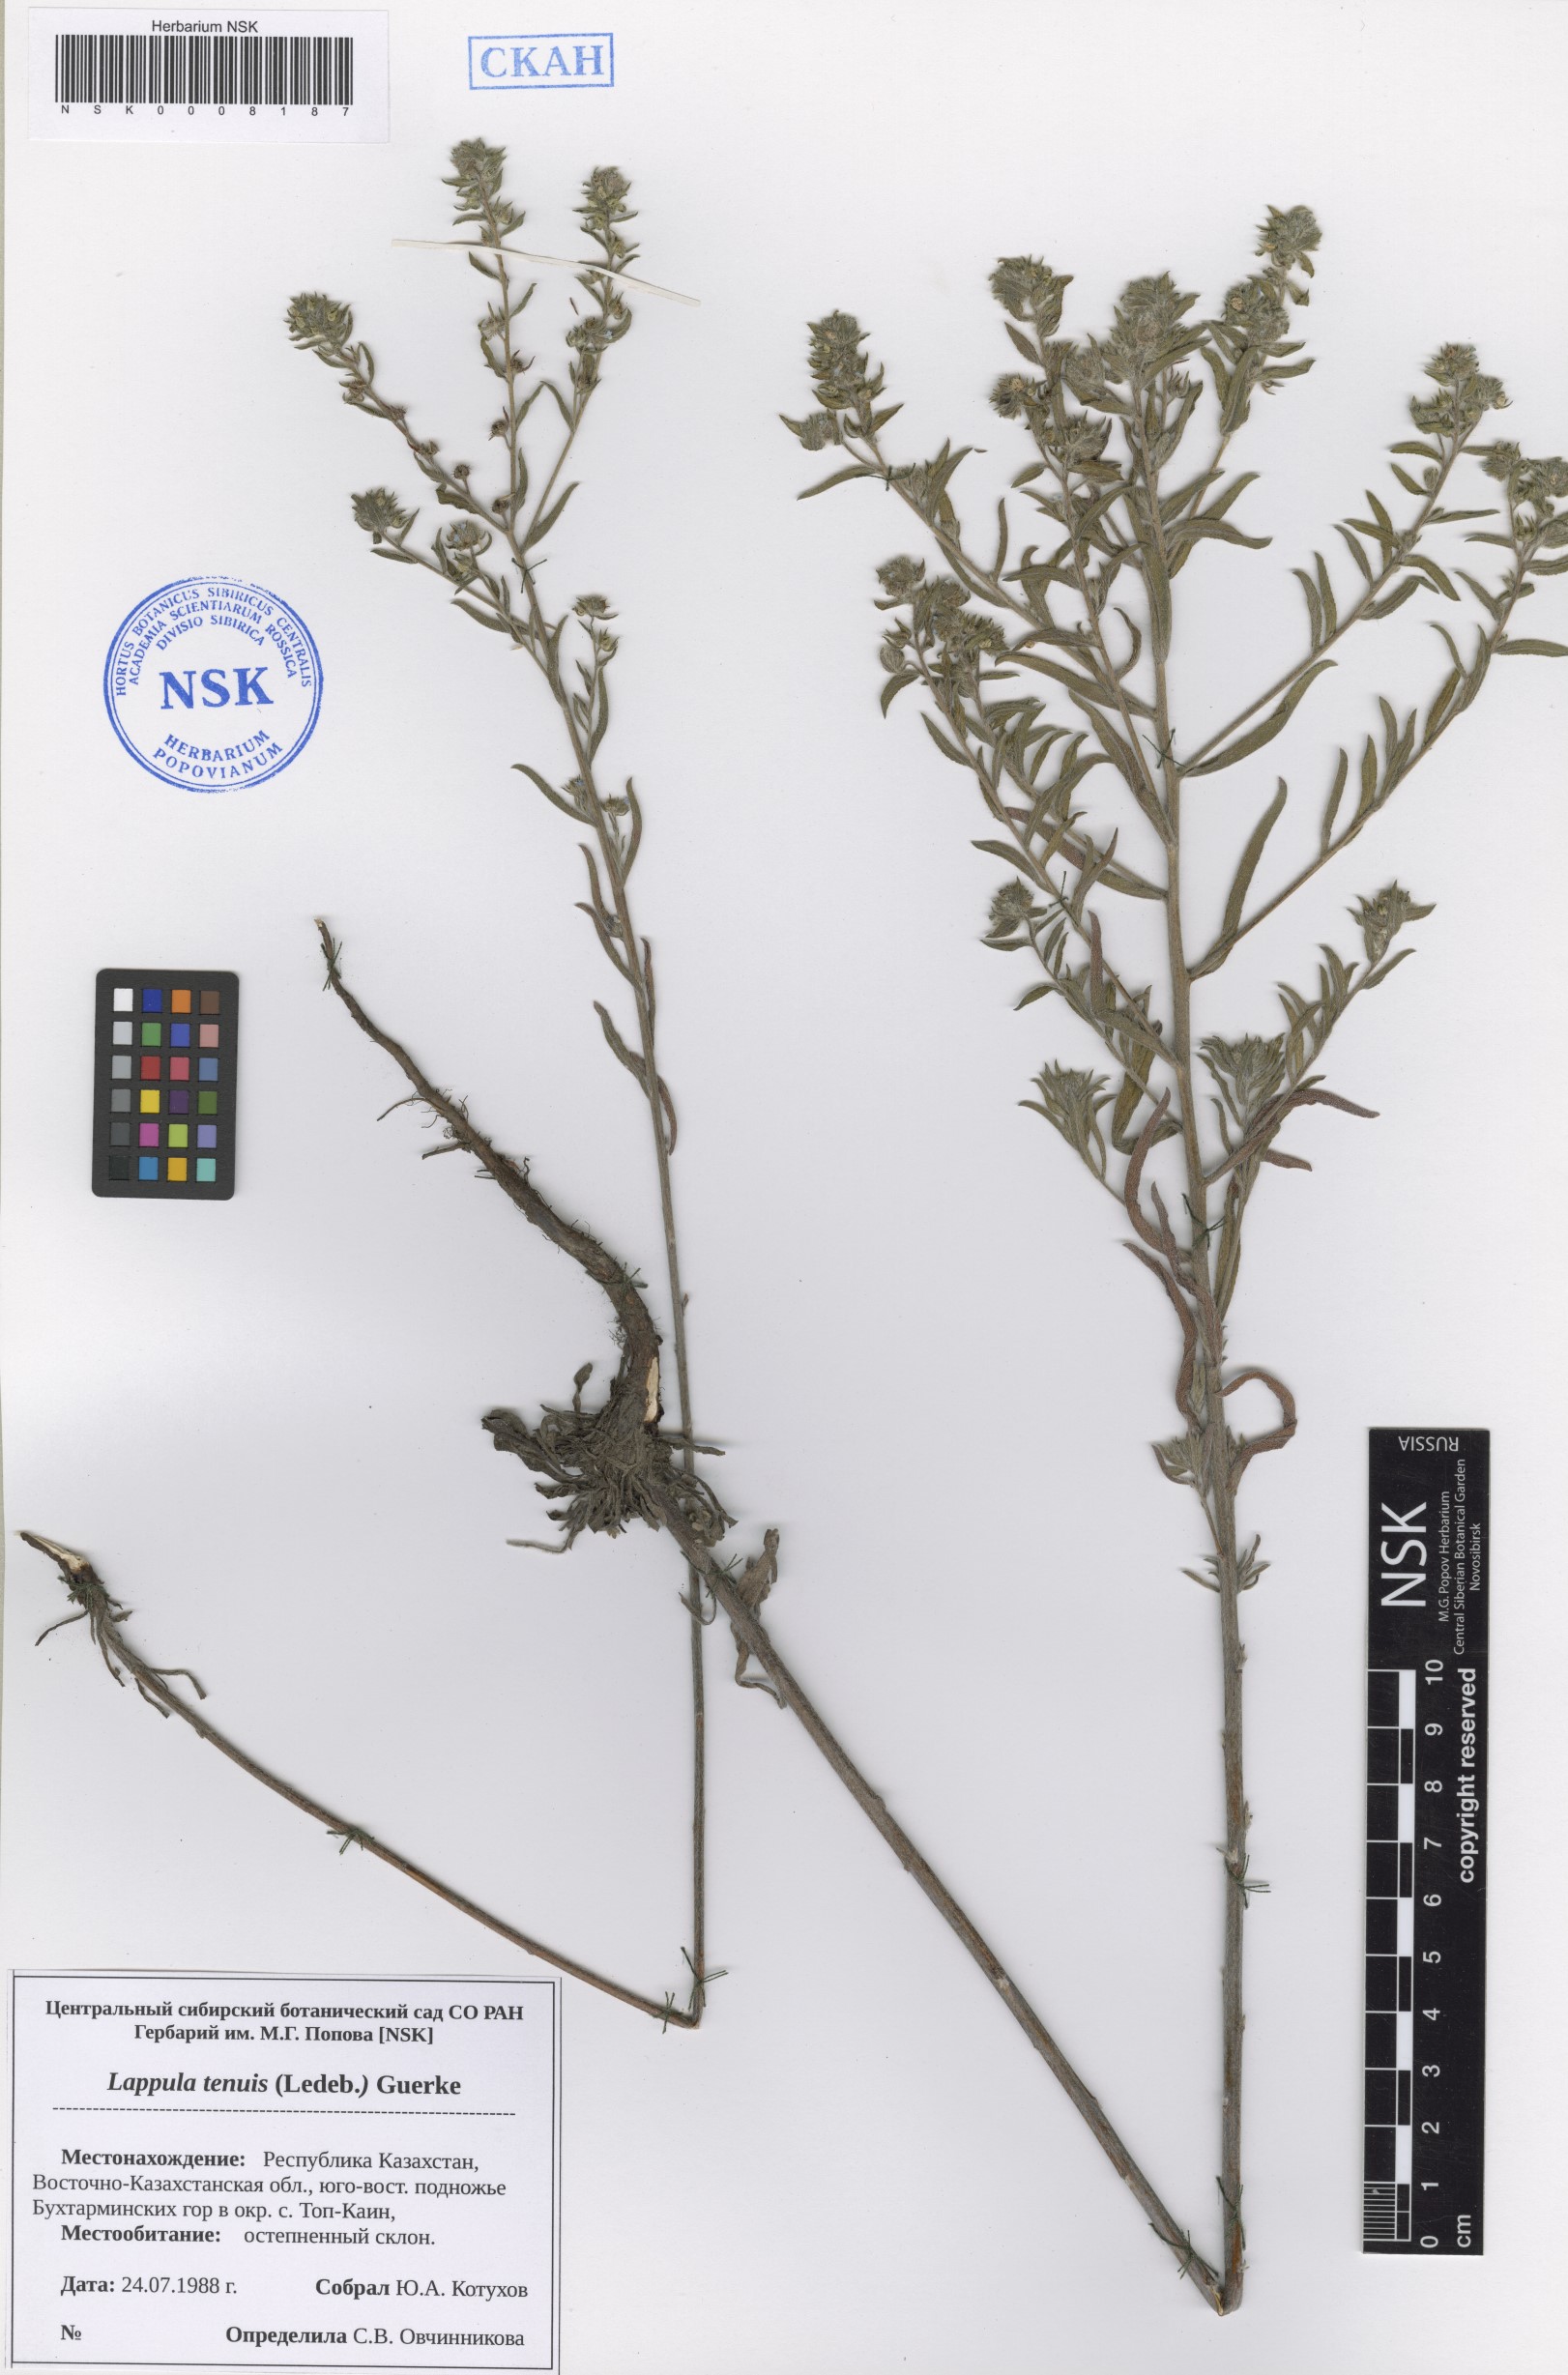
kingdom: Plantae
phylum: Tracheophyta
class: Magnoliopsida
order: Boraginales
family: Boraginaceae
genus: Lappula
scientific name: Lappula tenuis
